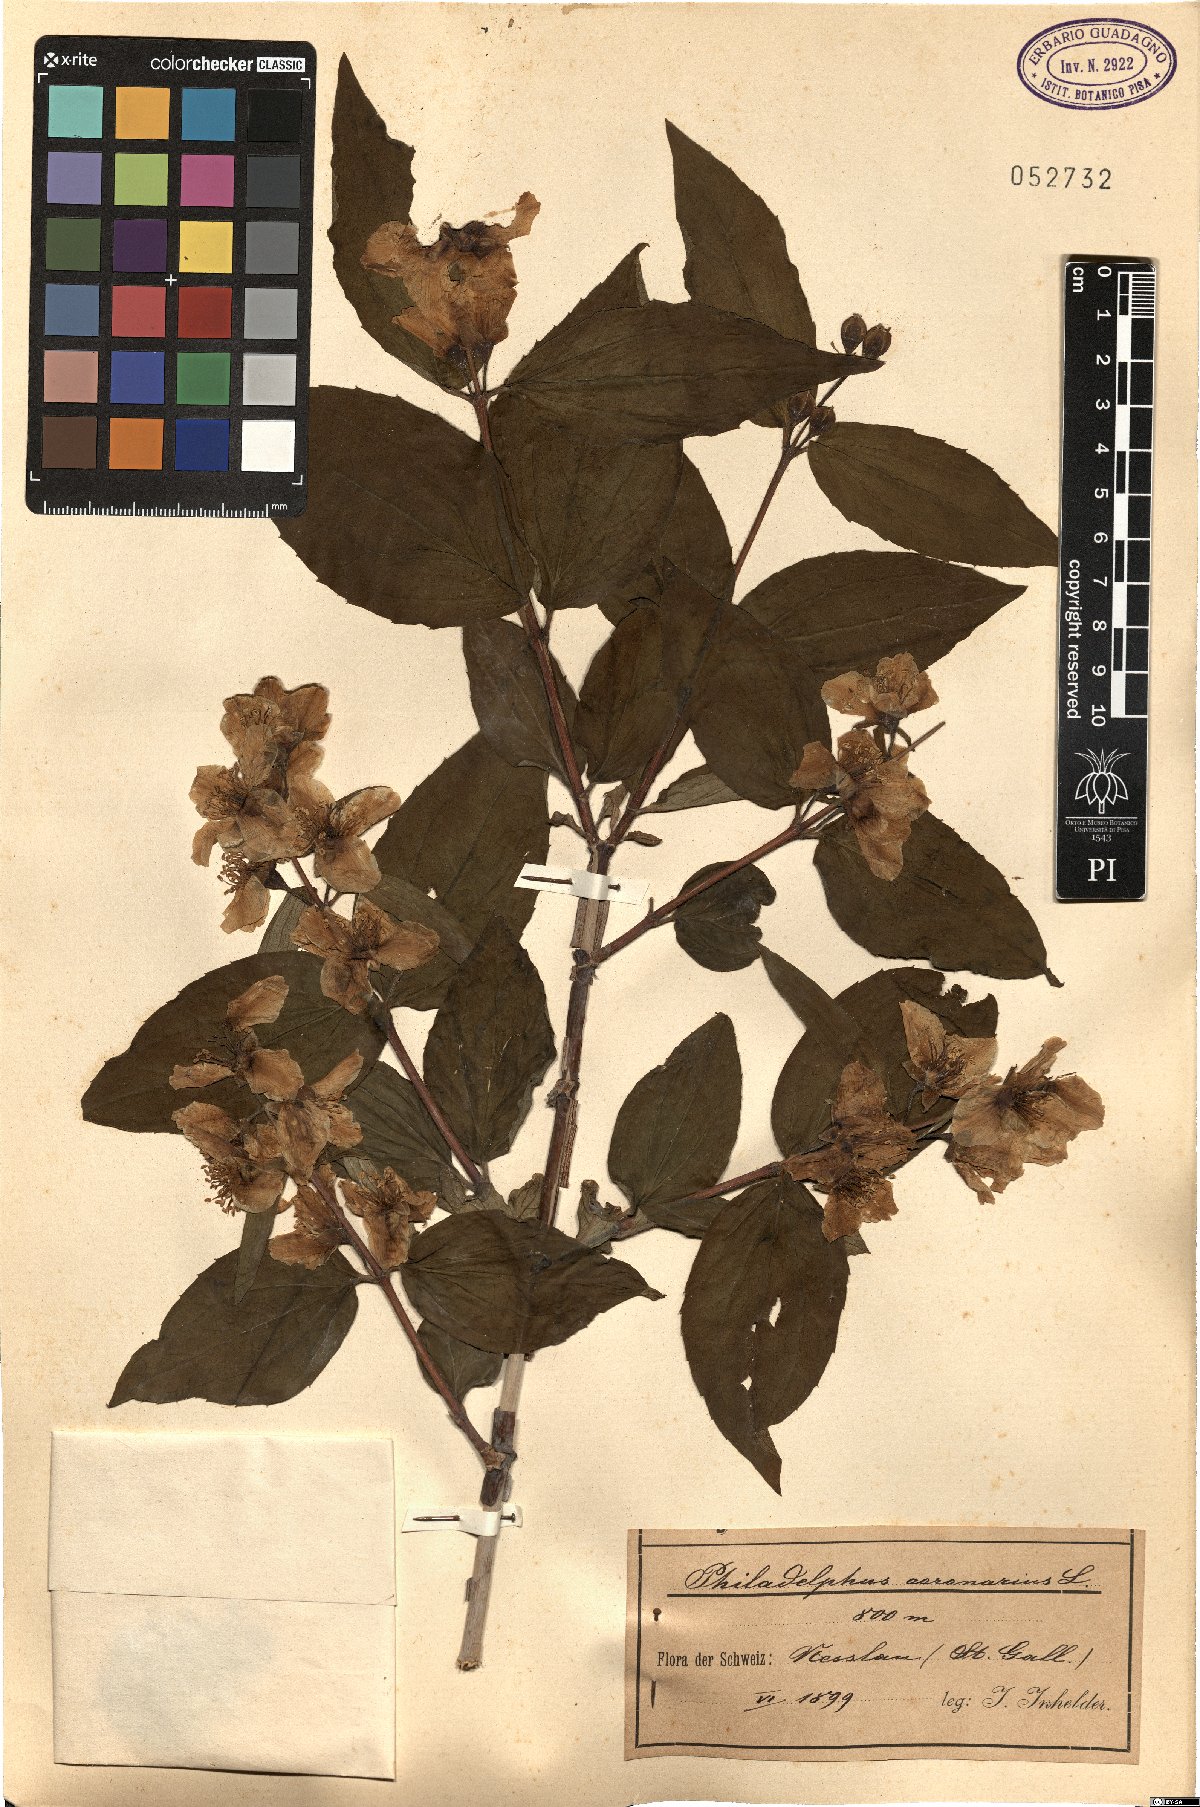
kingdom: Plantae
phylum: Tracheophyta
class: Magnoliopsida
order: Cornales
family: Hydrangeaceae
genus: Philadelphus
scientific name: Philadelphus coronarius
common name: Mock orange
